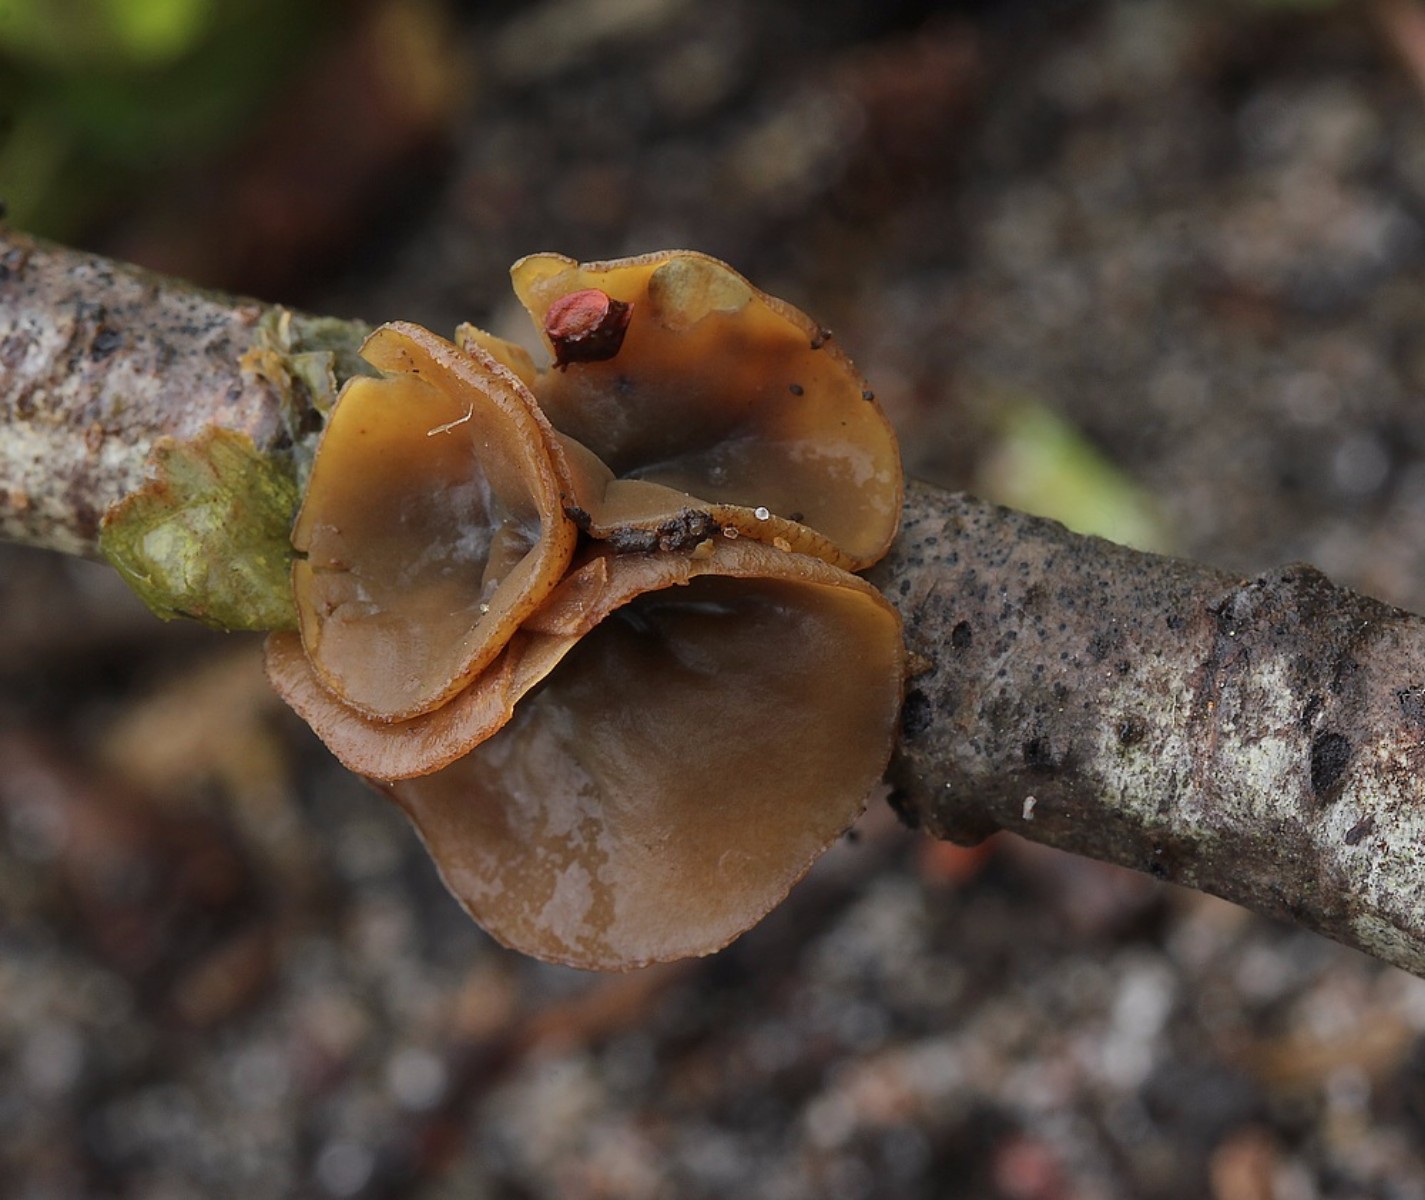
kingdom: Fungi
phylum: Ascomycota
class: Leotiomycetes
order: Helotiales
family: Rutstroemiaceae
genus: Rutstroemia
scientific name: Rutstroemia alni
